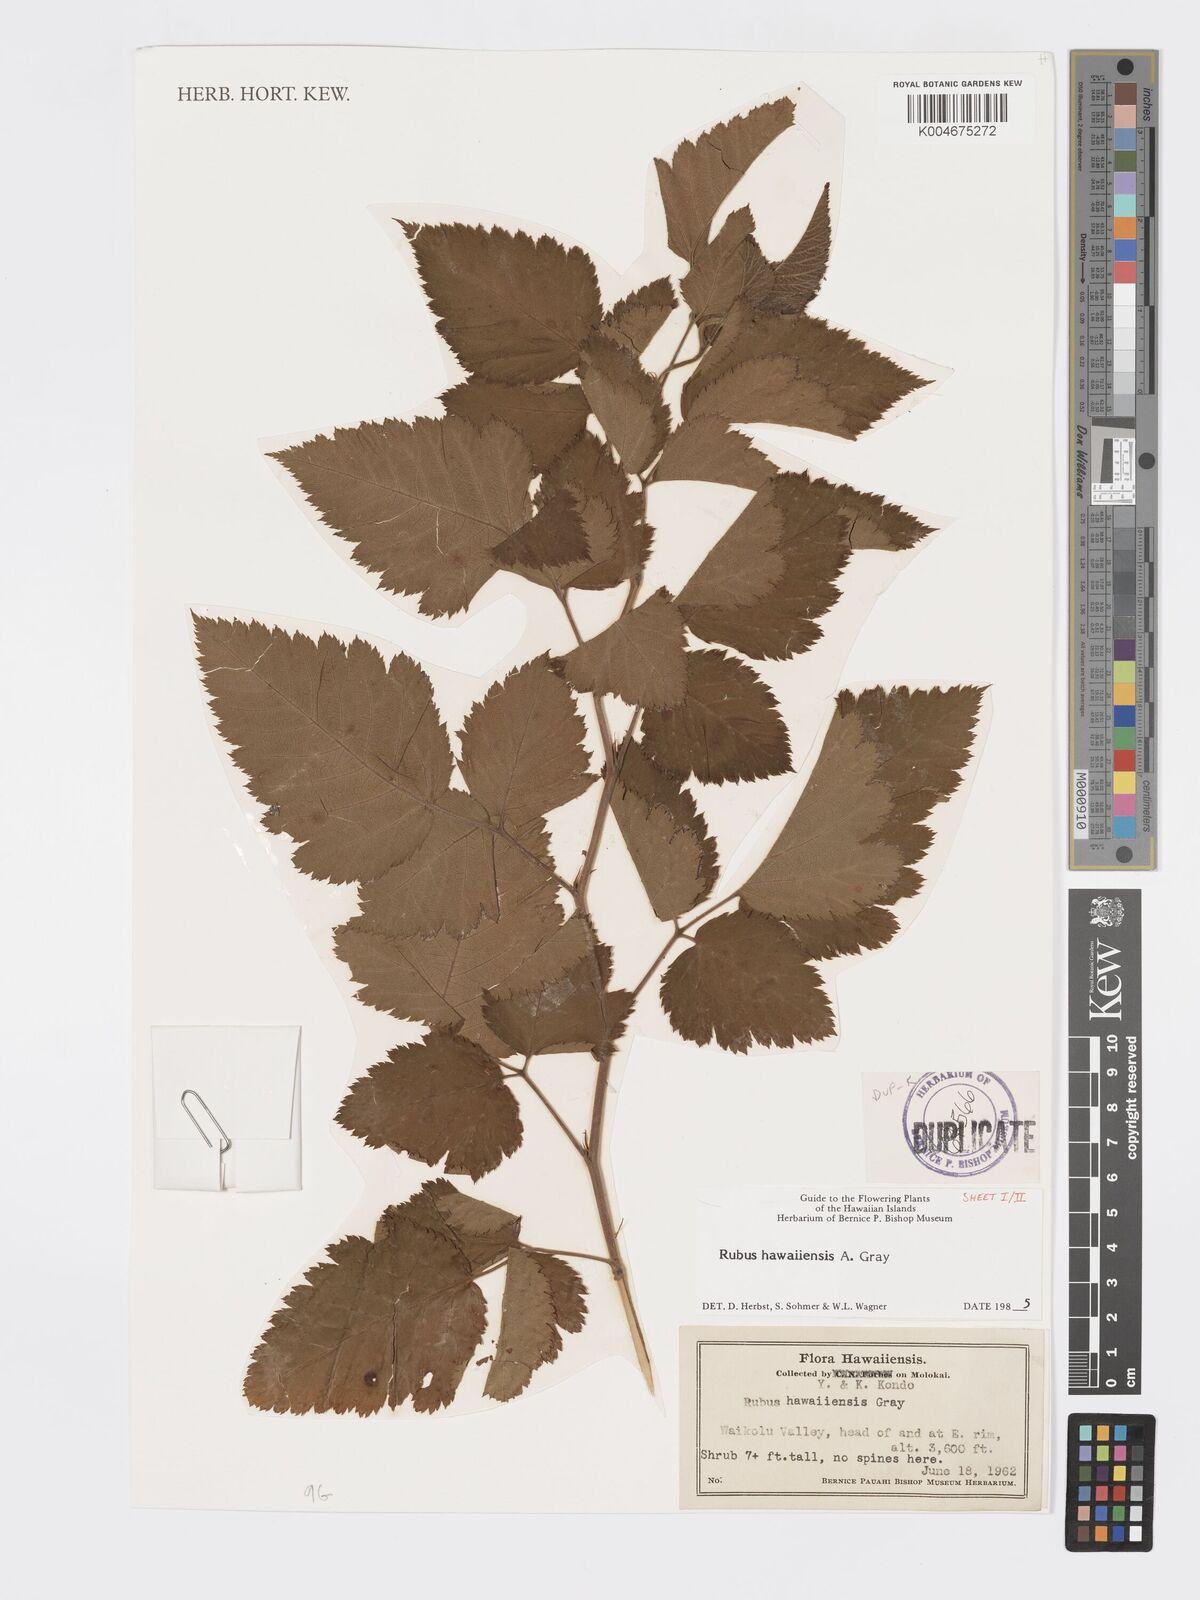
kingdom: Plantae
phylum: Tracheophyta
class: Magnoliopsida
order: Rosales
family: Rosaceae
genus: Rubus
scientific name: Rubus hawaiensis
